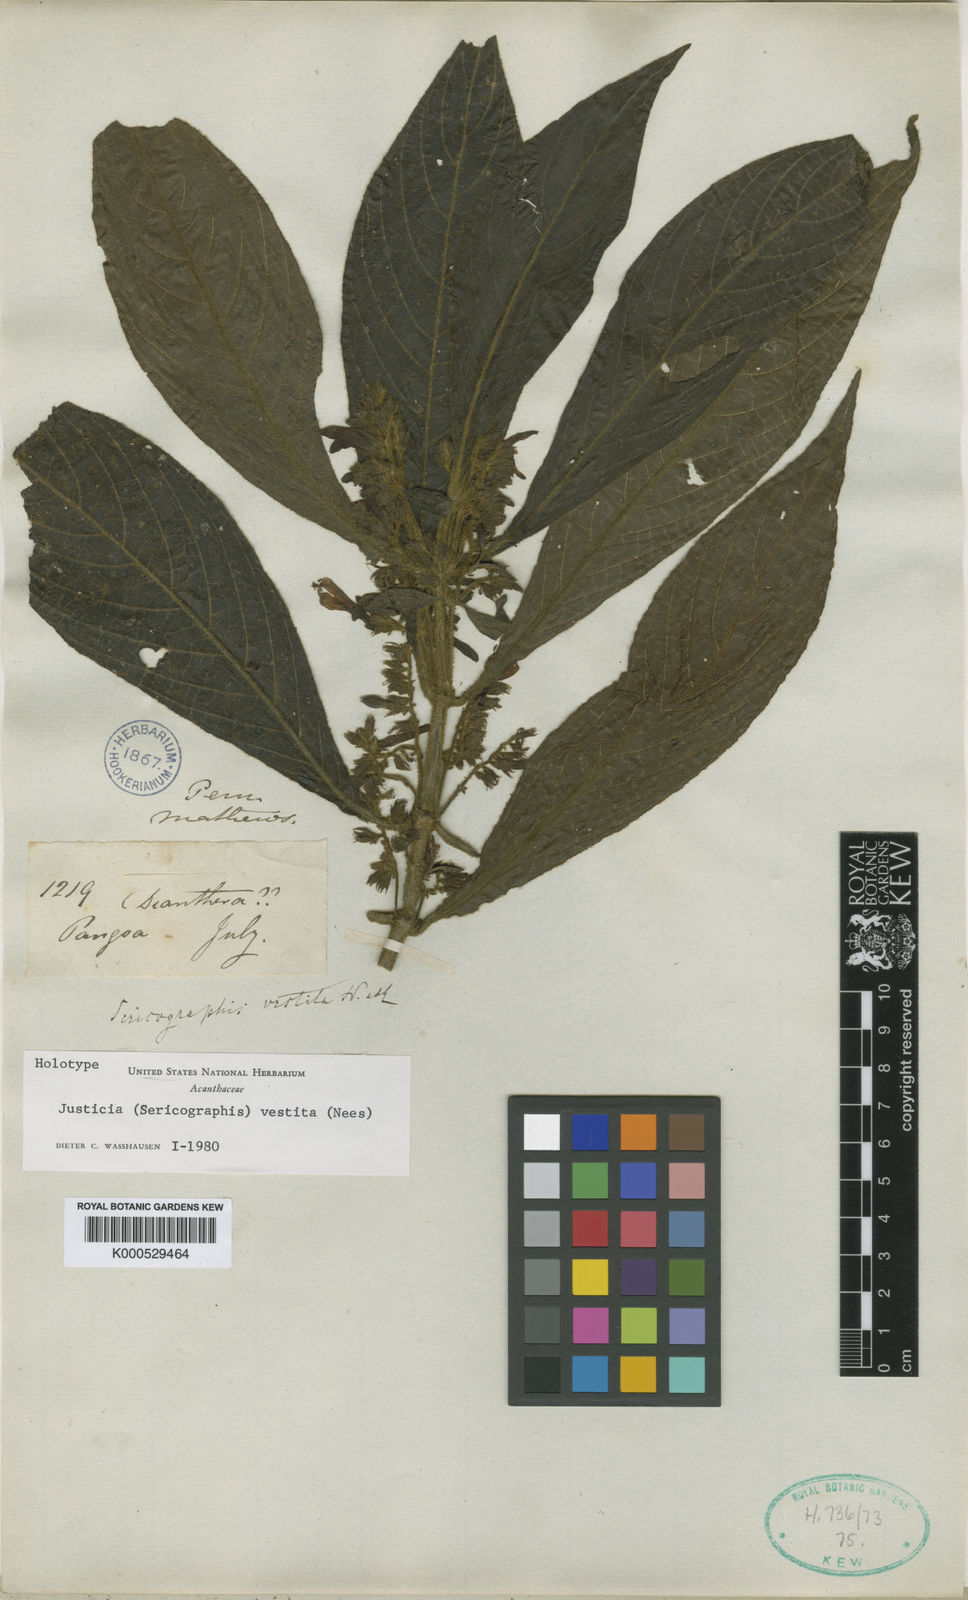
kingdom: Plantae
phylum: Tracheophyta
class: Magnoliopsida
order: Lamiales
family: Acanthaceae
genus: Nelsonia
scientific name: Nelsonia canescens
